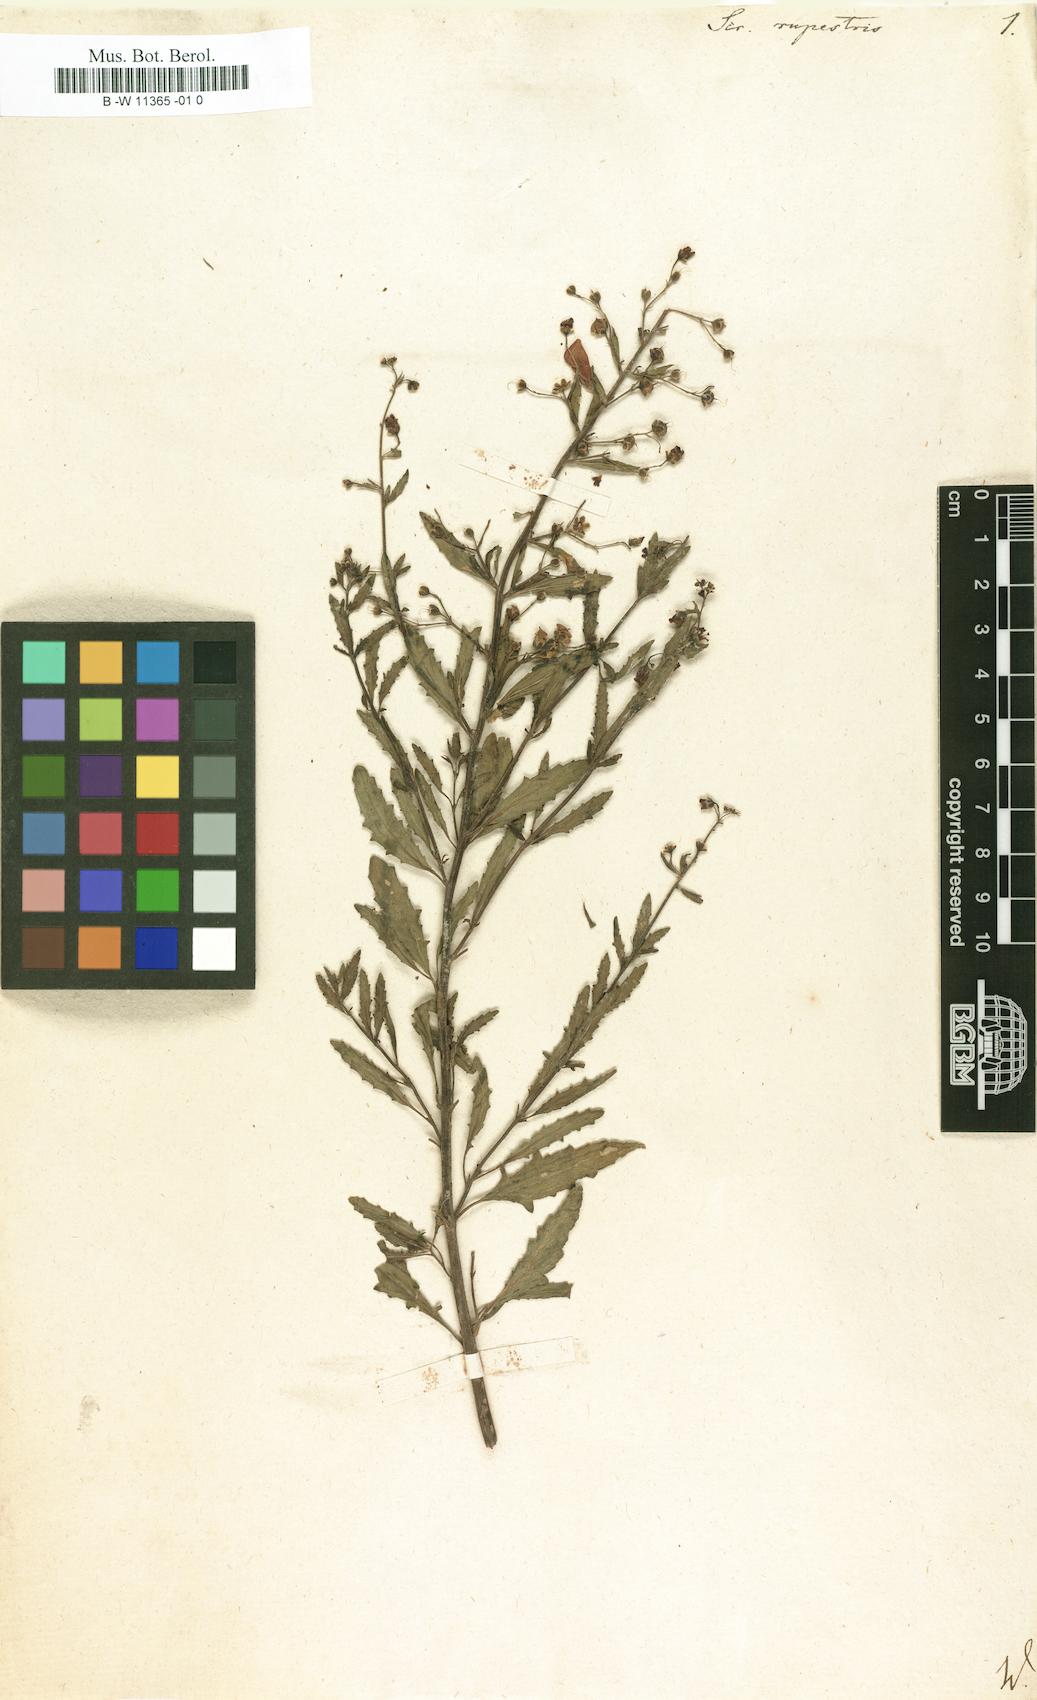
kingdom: Plantae
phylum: Tracheophyta
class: Magnoliopsida
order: Lamiales
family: Scrophulariaceae
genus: Scrophularia
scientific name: Scrophularia rupestris
